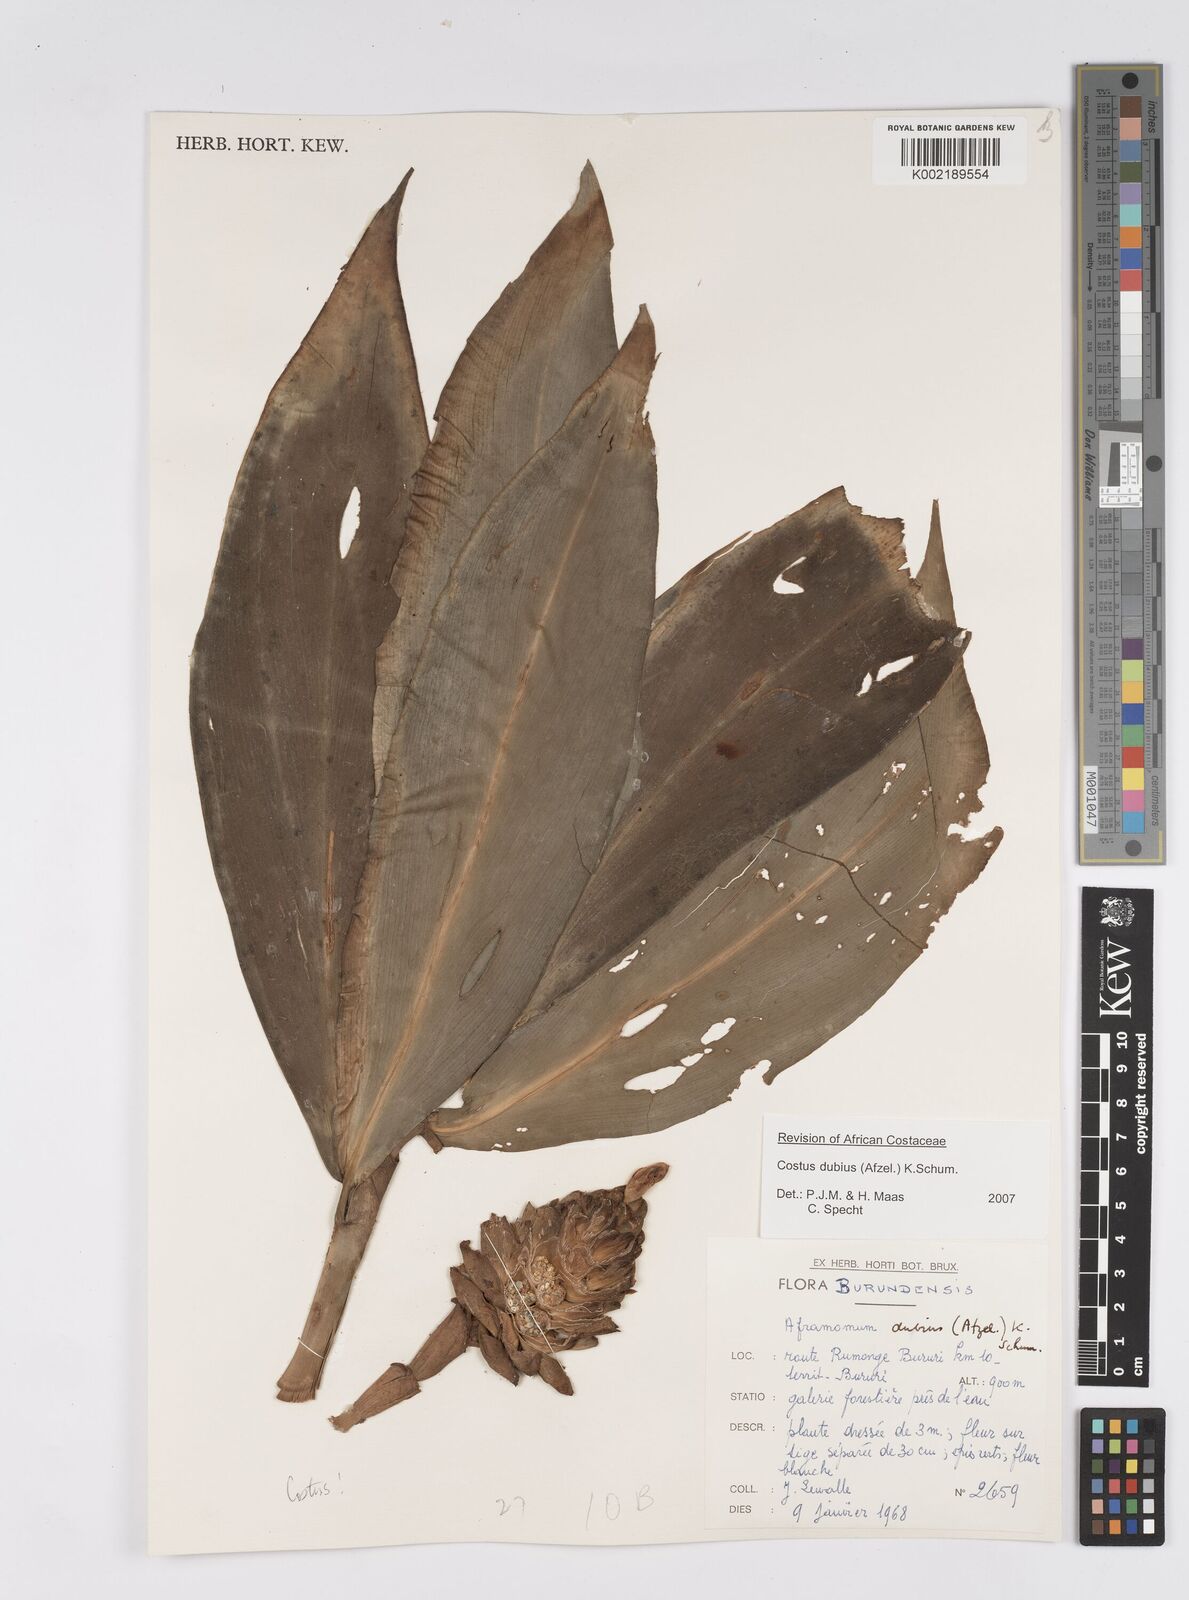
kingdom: Plantae
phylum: Tracheophyta
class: Liliopsida
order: Zingiberales
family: Costaceae
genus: Costus
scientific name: Costus dubius
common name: Costus
